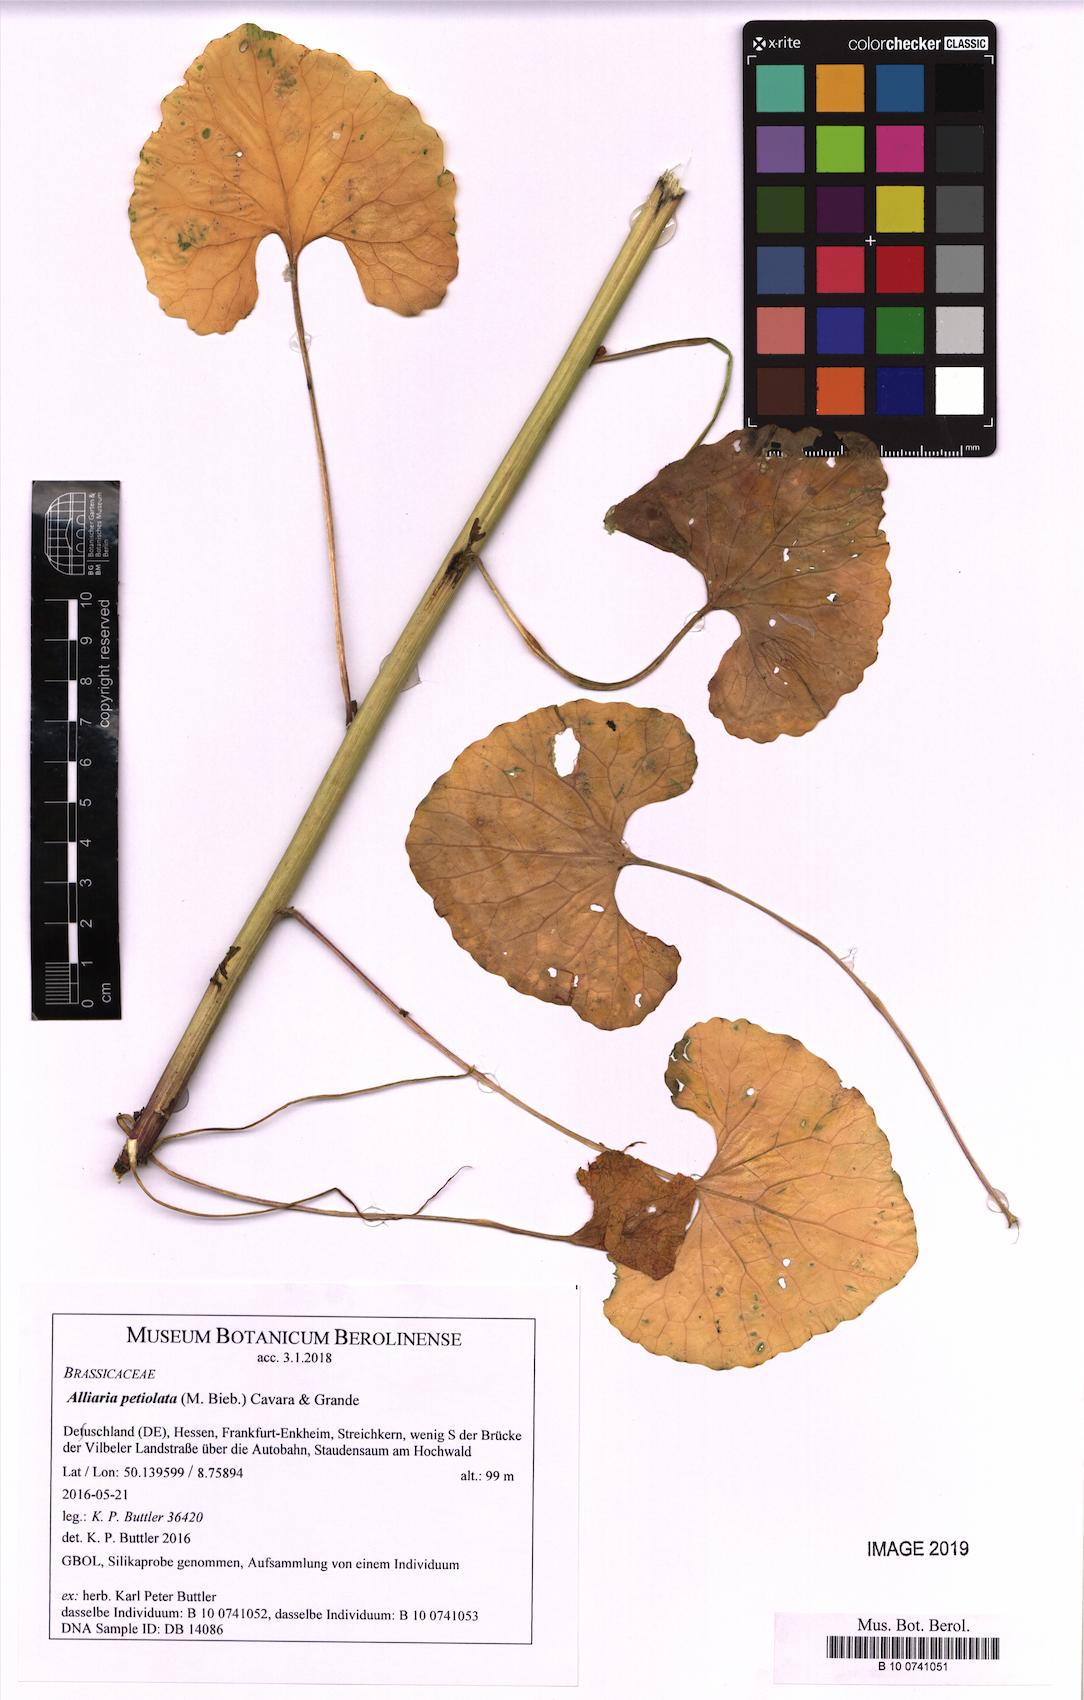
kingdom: Plantae
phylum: Tracheophyta
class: Magnoliopsida
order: Brassicales
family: Brassicaceae
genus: Alliaria
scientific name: Alliaria petiolata
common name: Garlic mustard
